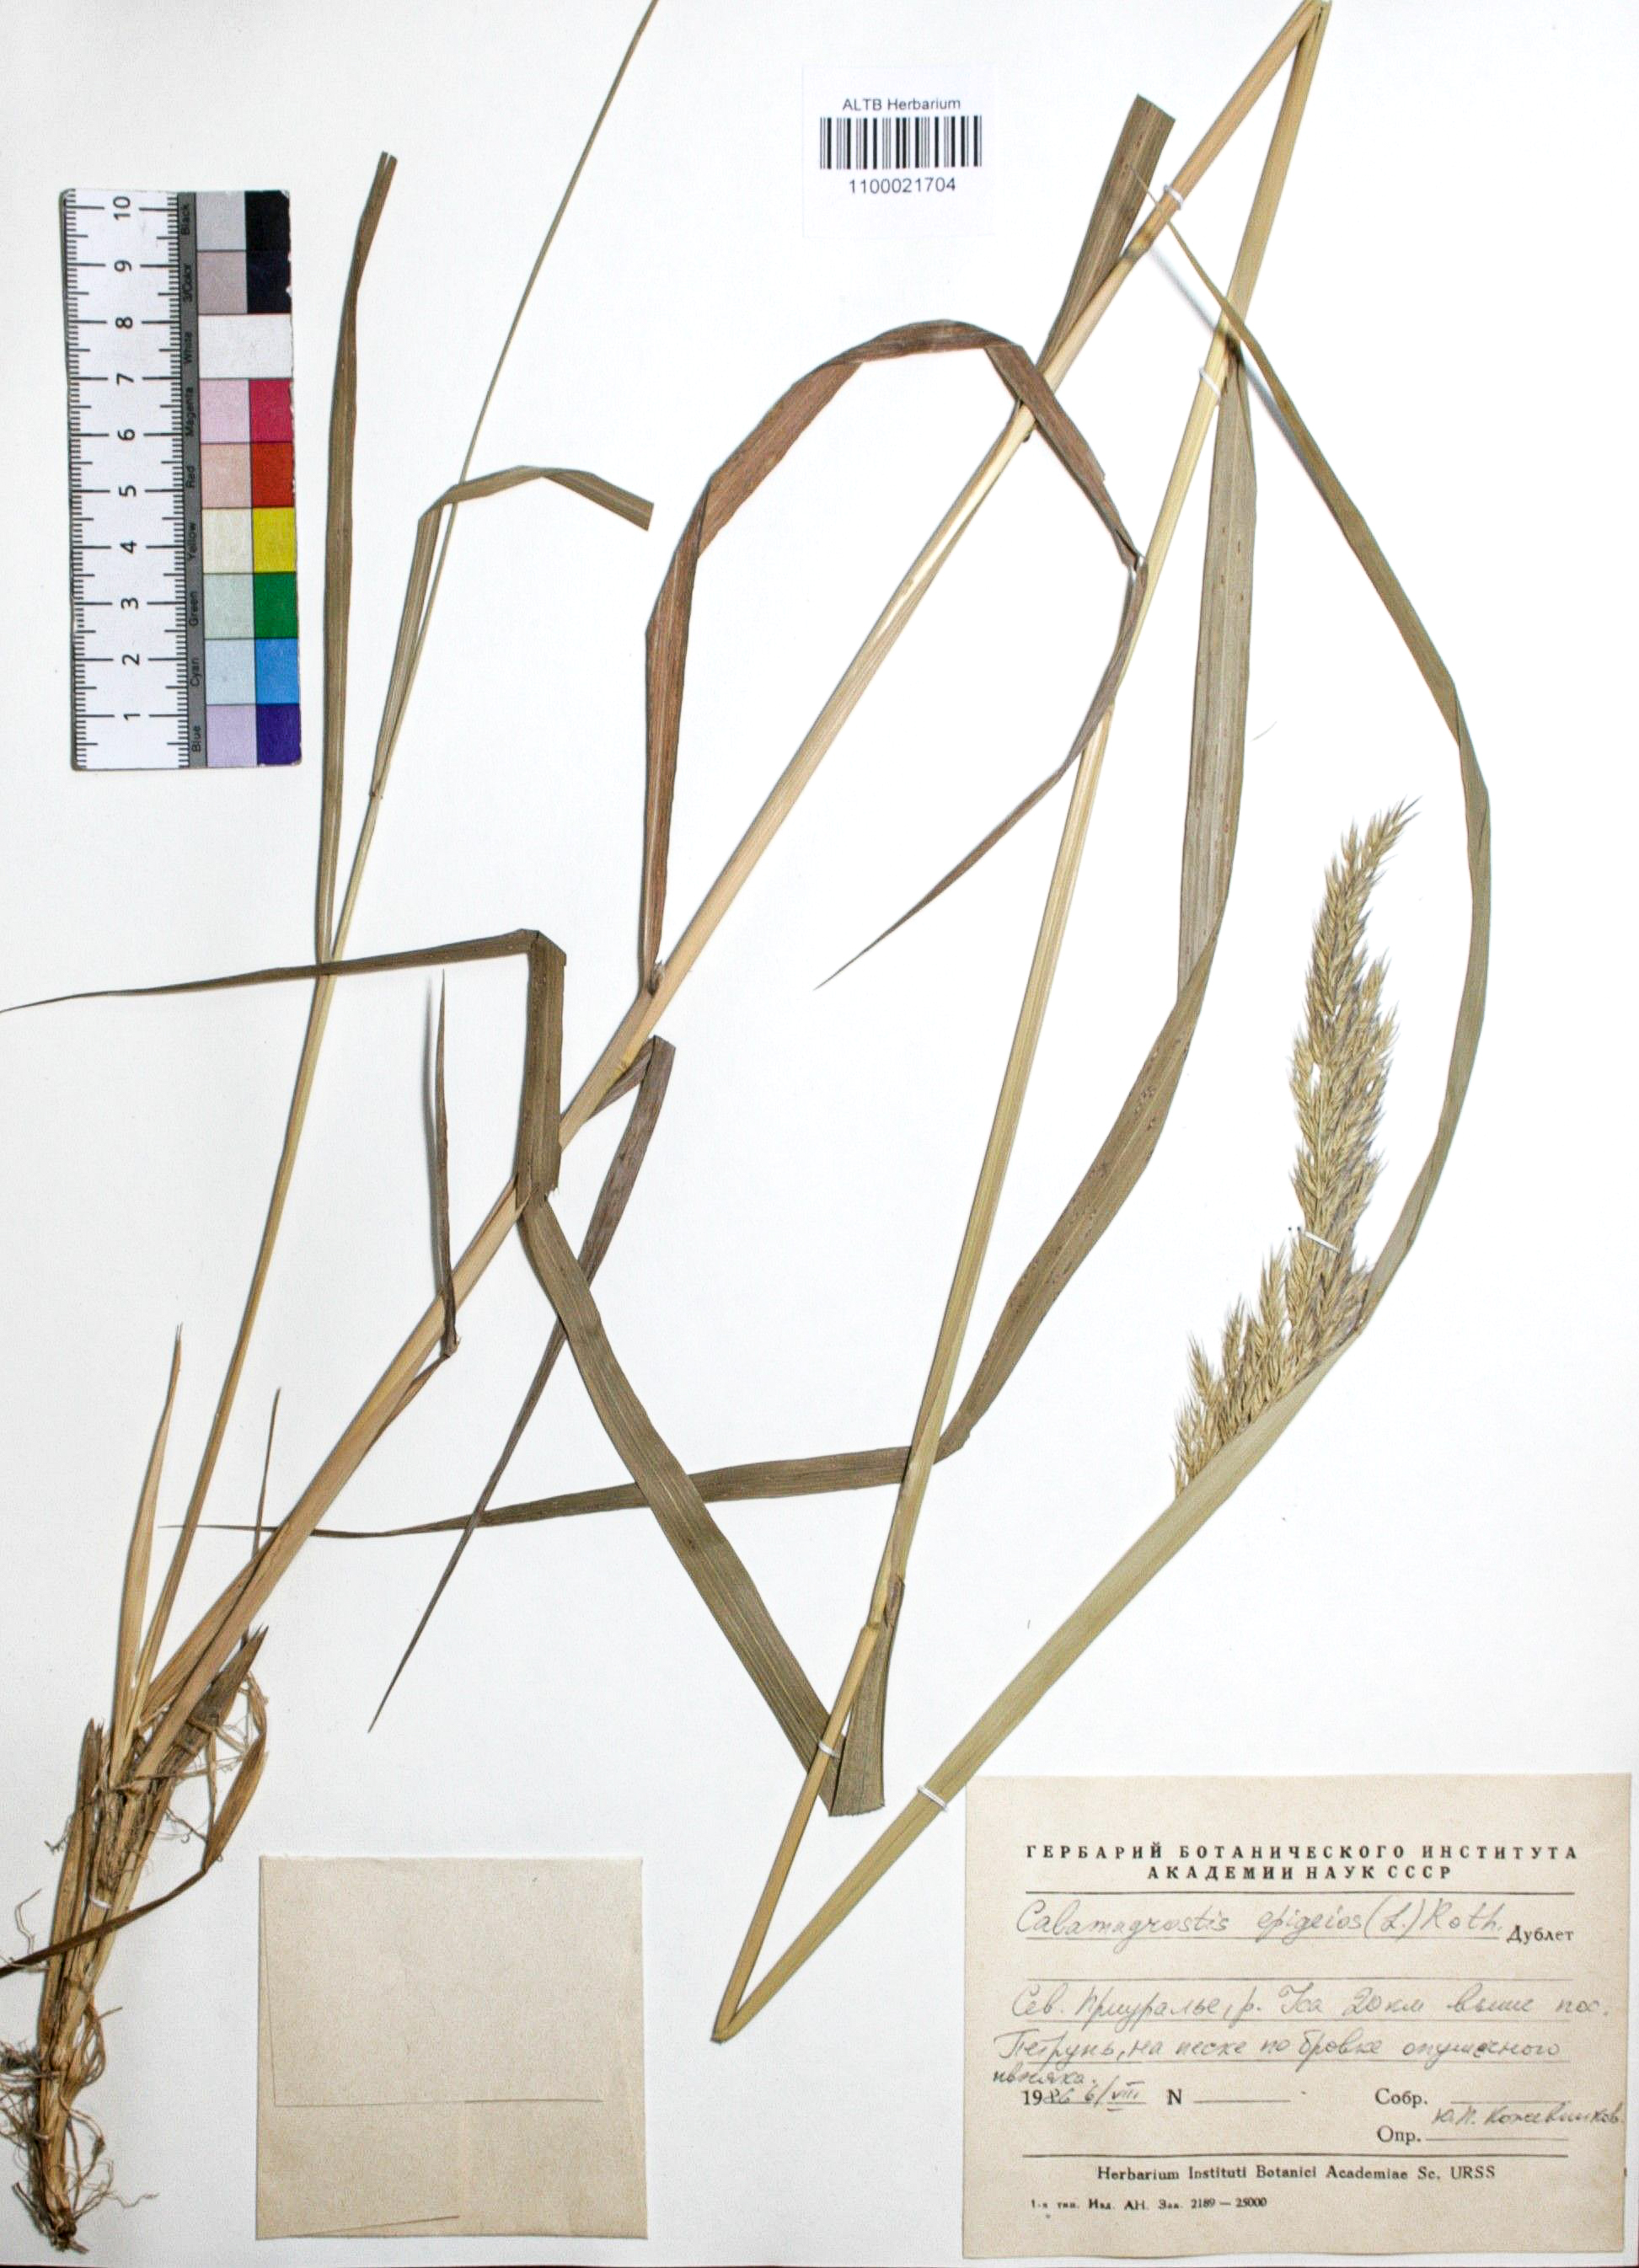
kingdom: Plantae
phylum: Tracheophyta
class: Liliopsida
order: Poales
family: Poaceae
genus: Calamagrostis
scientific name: Calamagrostis epigejos
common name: Wood small-reed
